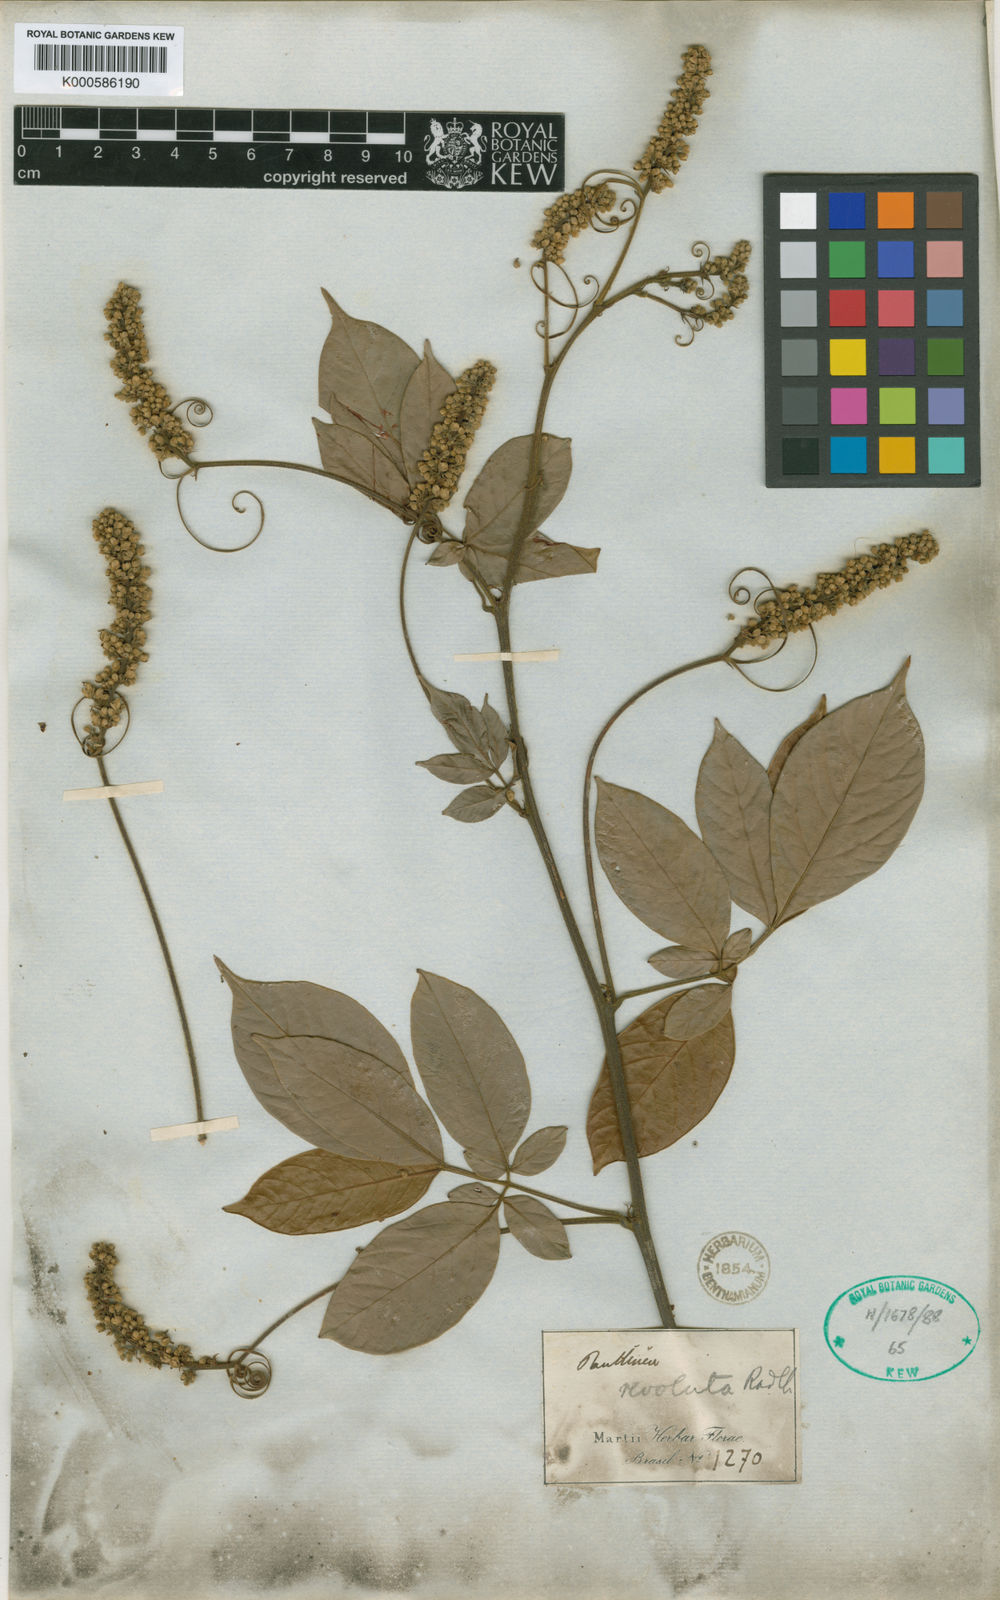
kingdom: Plantae
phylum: Tracheophyta
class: Magnoliopsida
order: Sapindales
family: Sapindaceae
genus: Paullinia
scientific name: Paullinia revoluta
